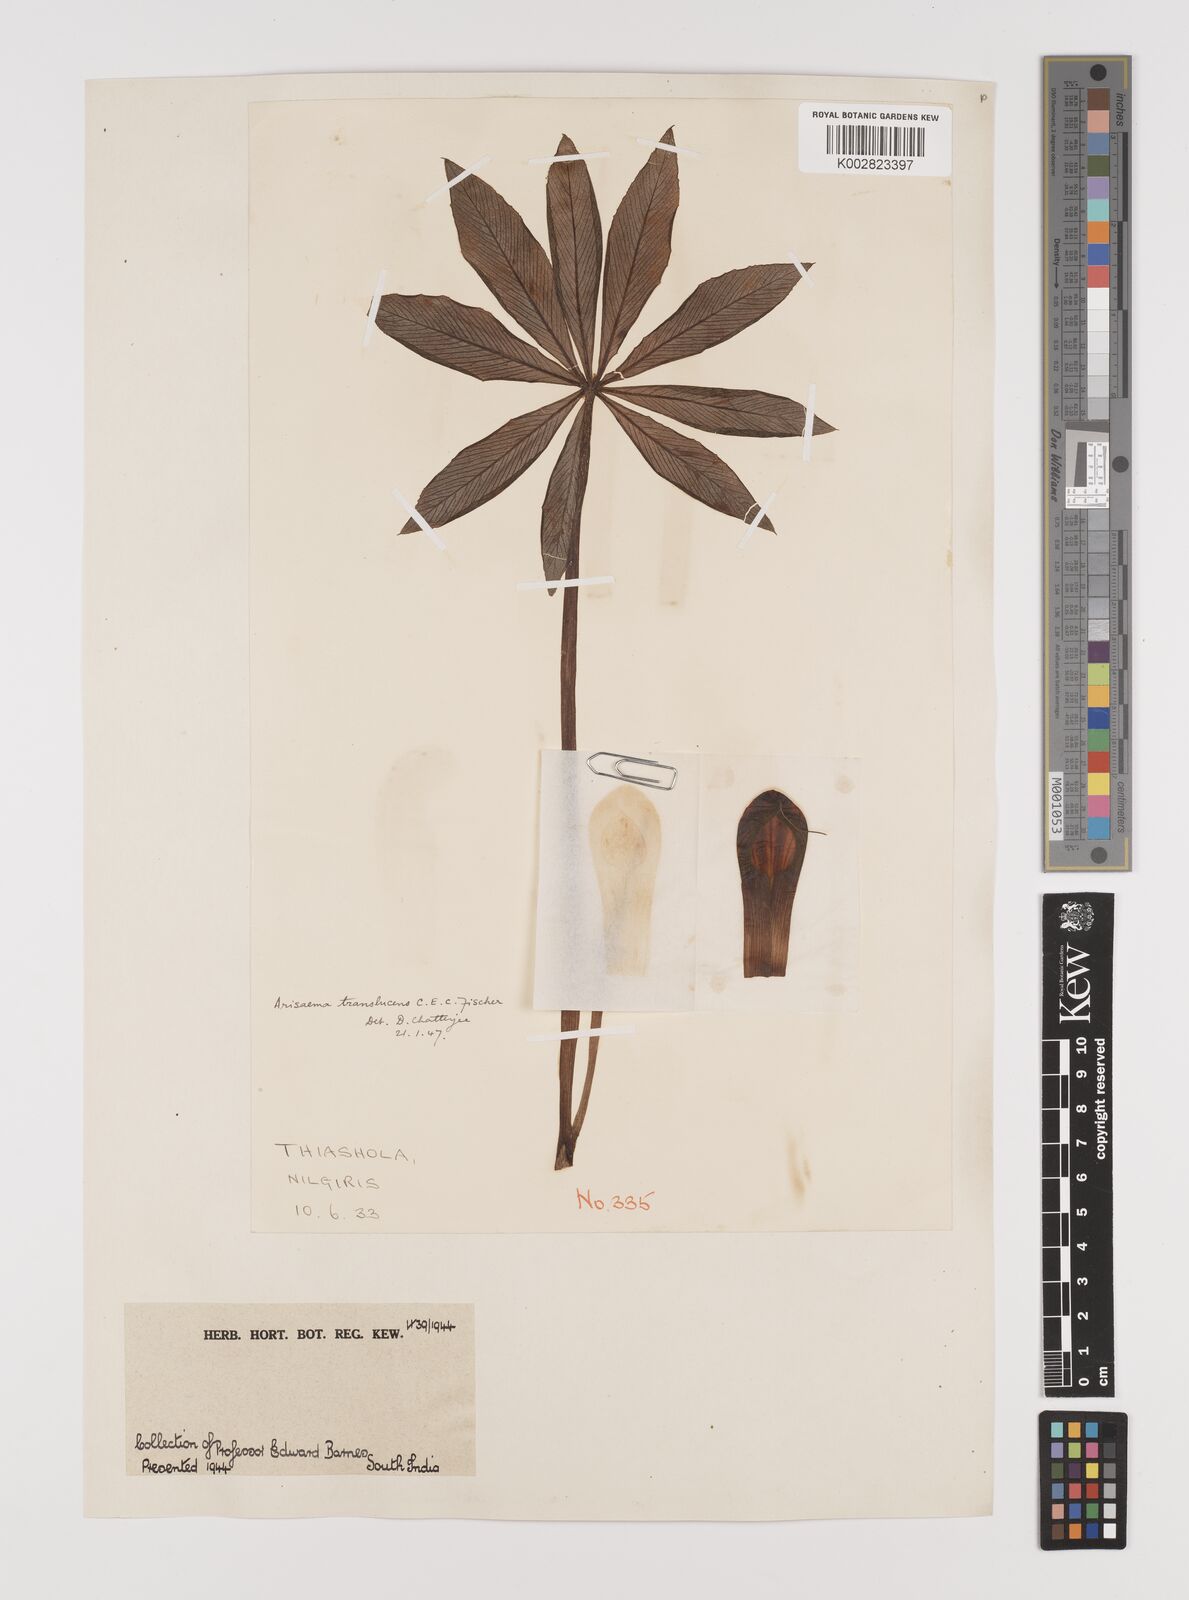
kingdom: Plantae
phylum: Tracheophyta
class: Liliopsida
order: Alismatales
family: Araceae
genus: Arisaema
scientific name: Arisaema translucens
